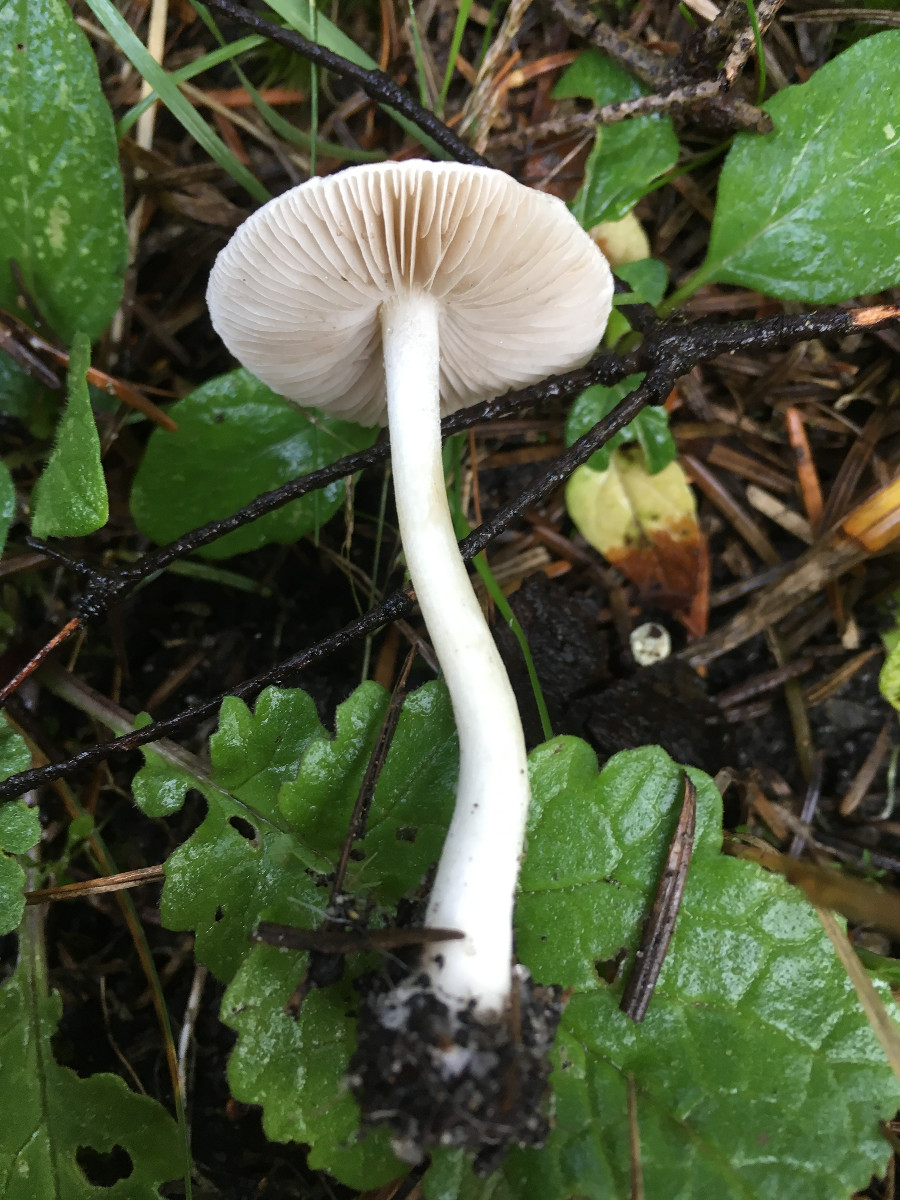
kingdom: Fungi
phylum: Basidiomycota
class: Agaricomycetes
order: Agaricales
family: Inocybaceae
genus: Inocybe
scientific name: Inocybe
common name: almindelig trævlhat
